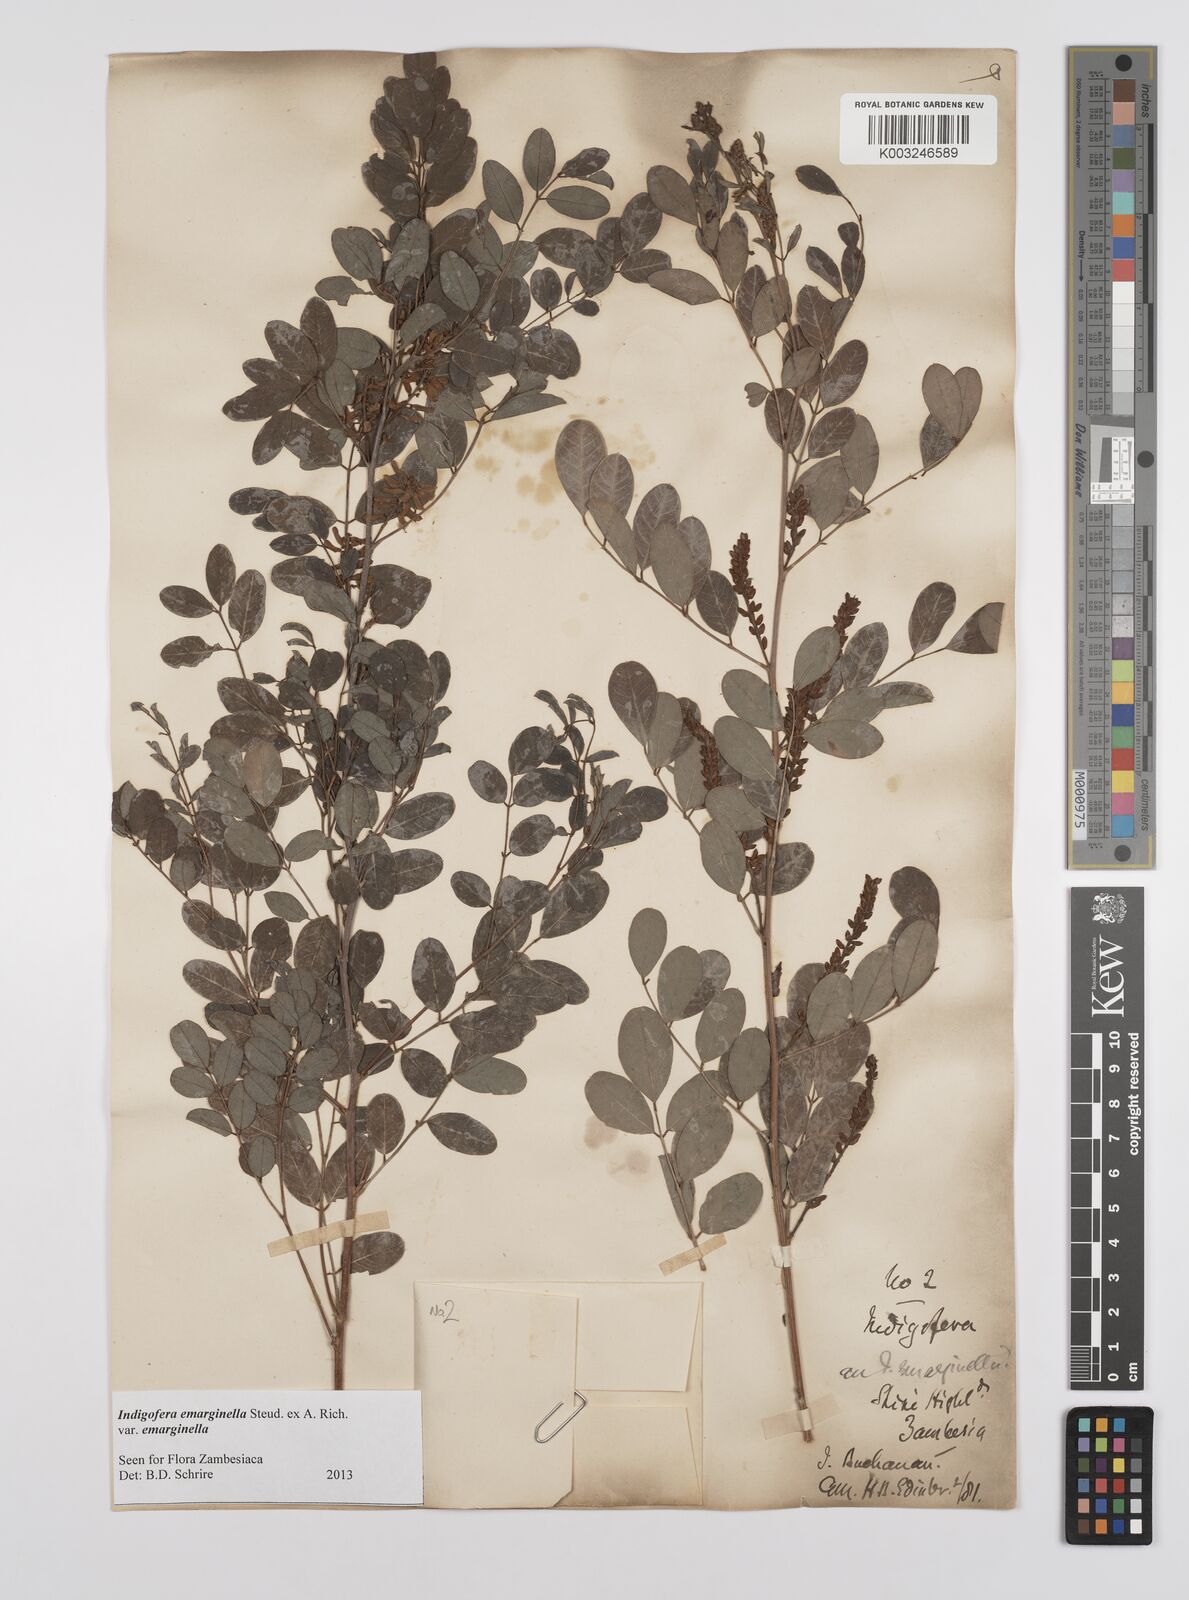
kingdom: Plantae
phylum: Tracheophyta
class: Magnoliopsida
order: Fabales
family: Fabaceae
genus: Indigofera
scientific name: Indigofera emarginella
